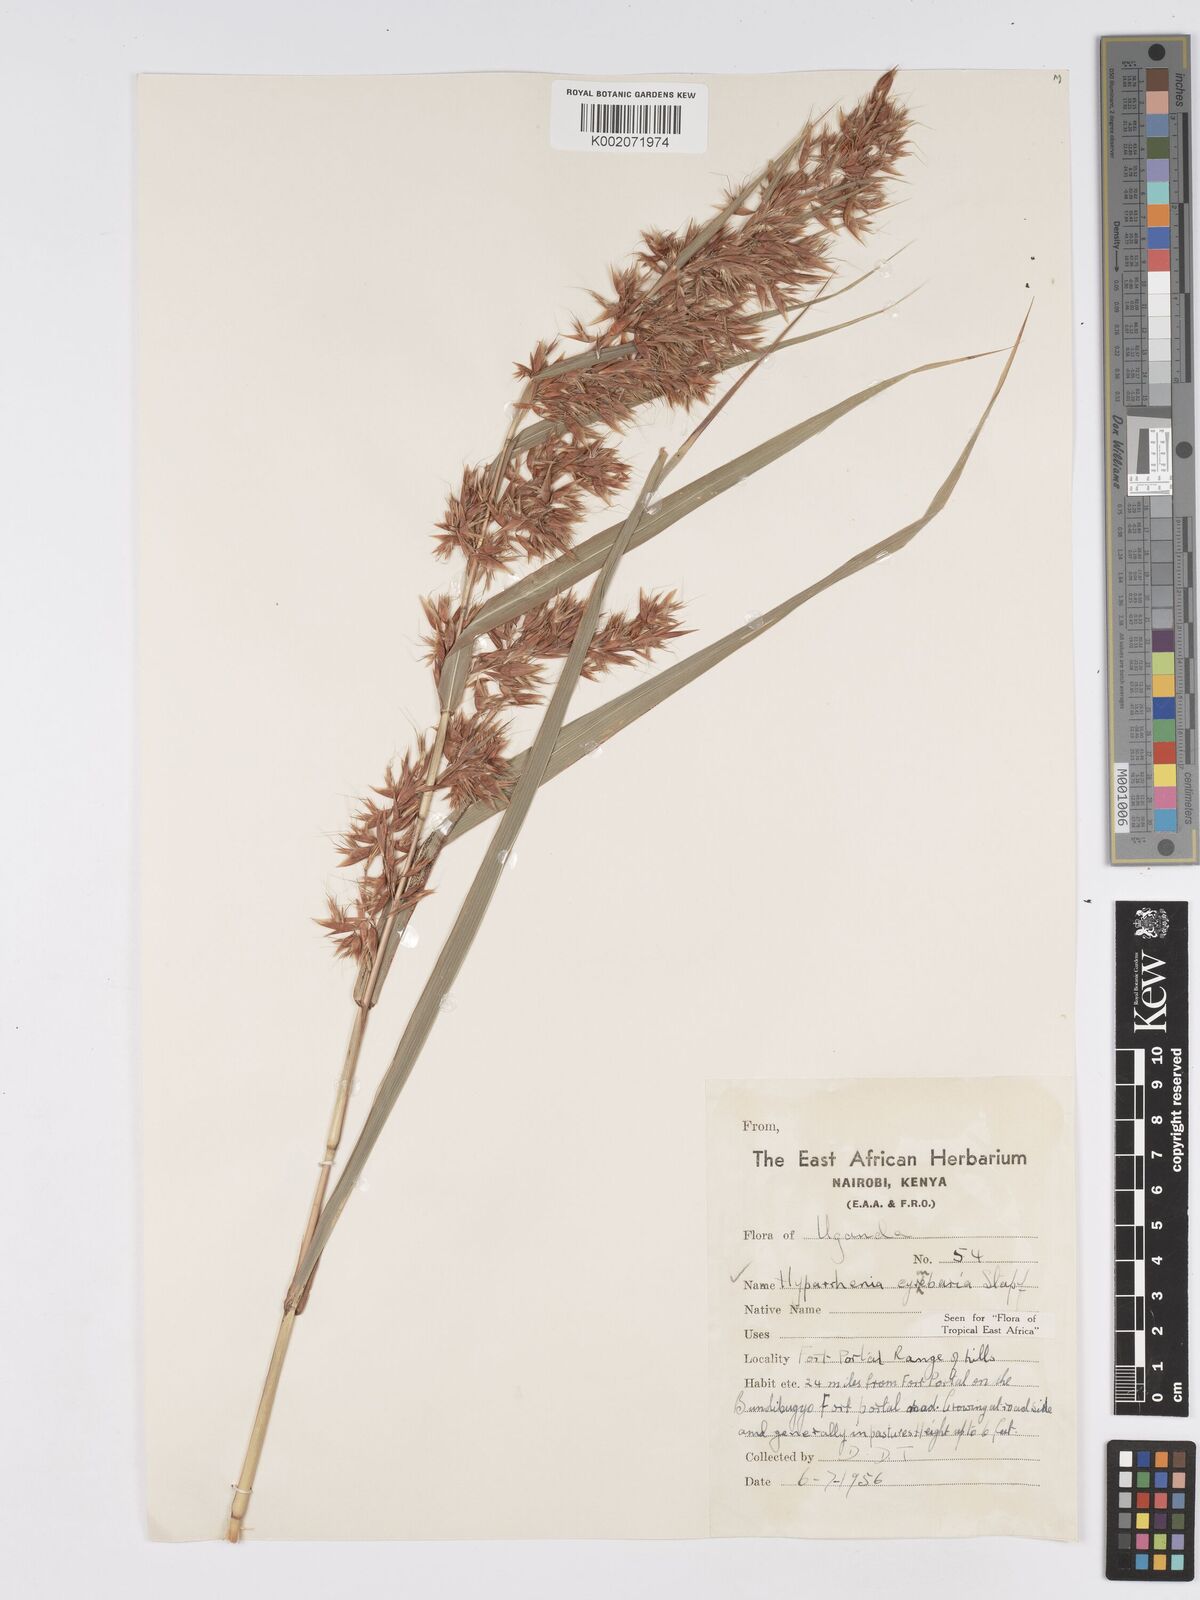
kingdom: Plantae
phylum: Tracheophyta
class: Liliopsida
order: Poales
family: Poaceae
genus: Hyparrhenia
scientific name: Hyparrhenia cymbaria
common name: Boat thatching grass
